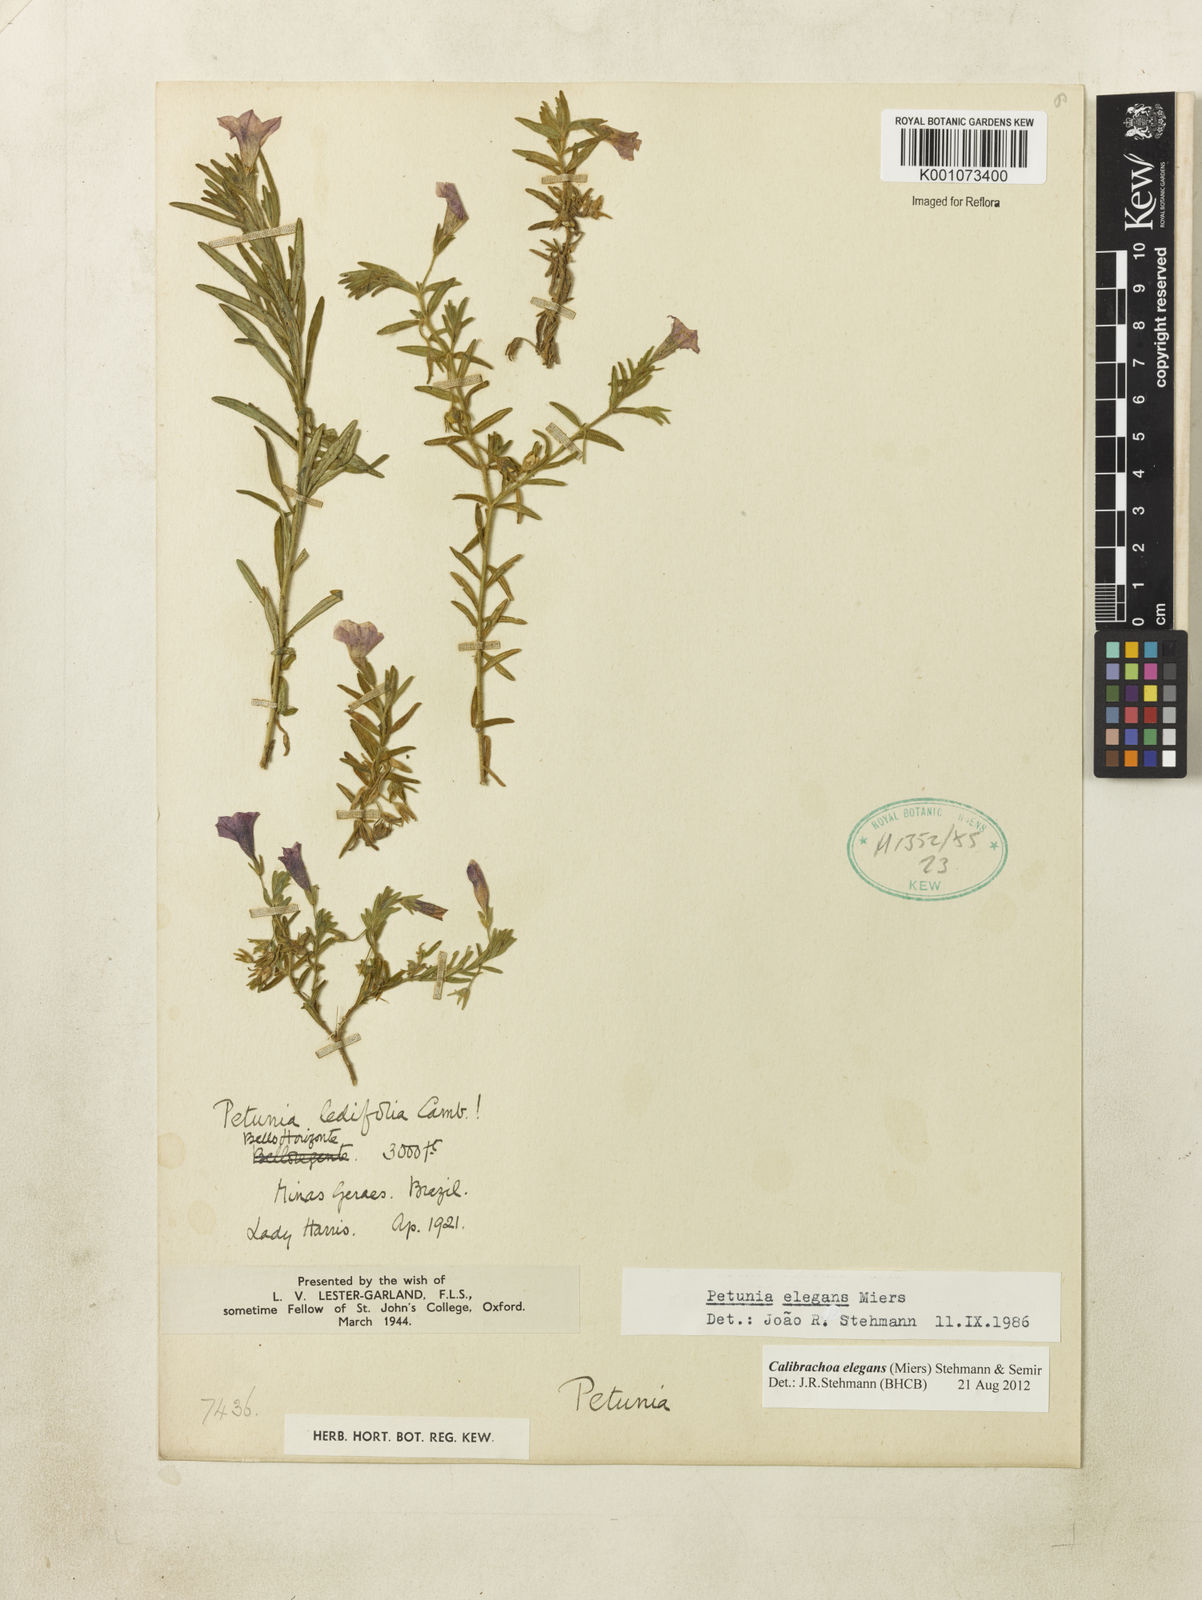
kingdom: Plantae
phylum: Tracheophyta
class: Magnoliopsida
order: Solanales
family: Solanaceae
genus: Calibrachoa
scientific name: Calibrachoa elegans
